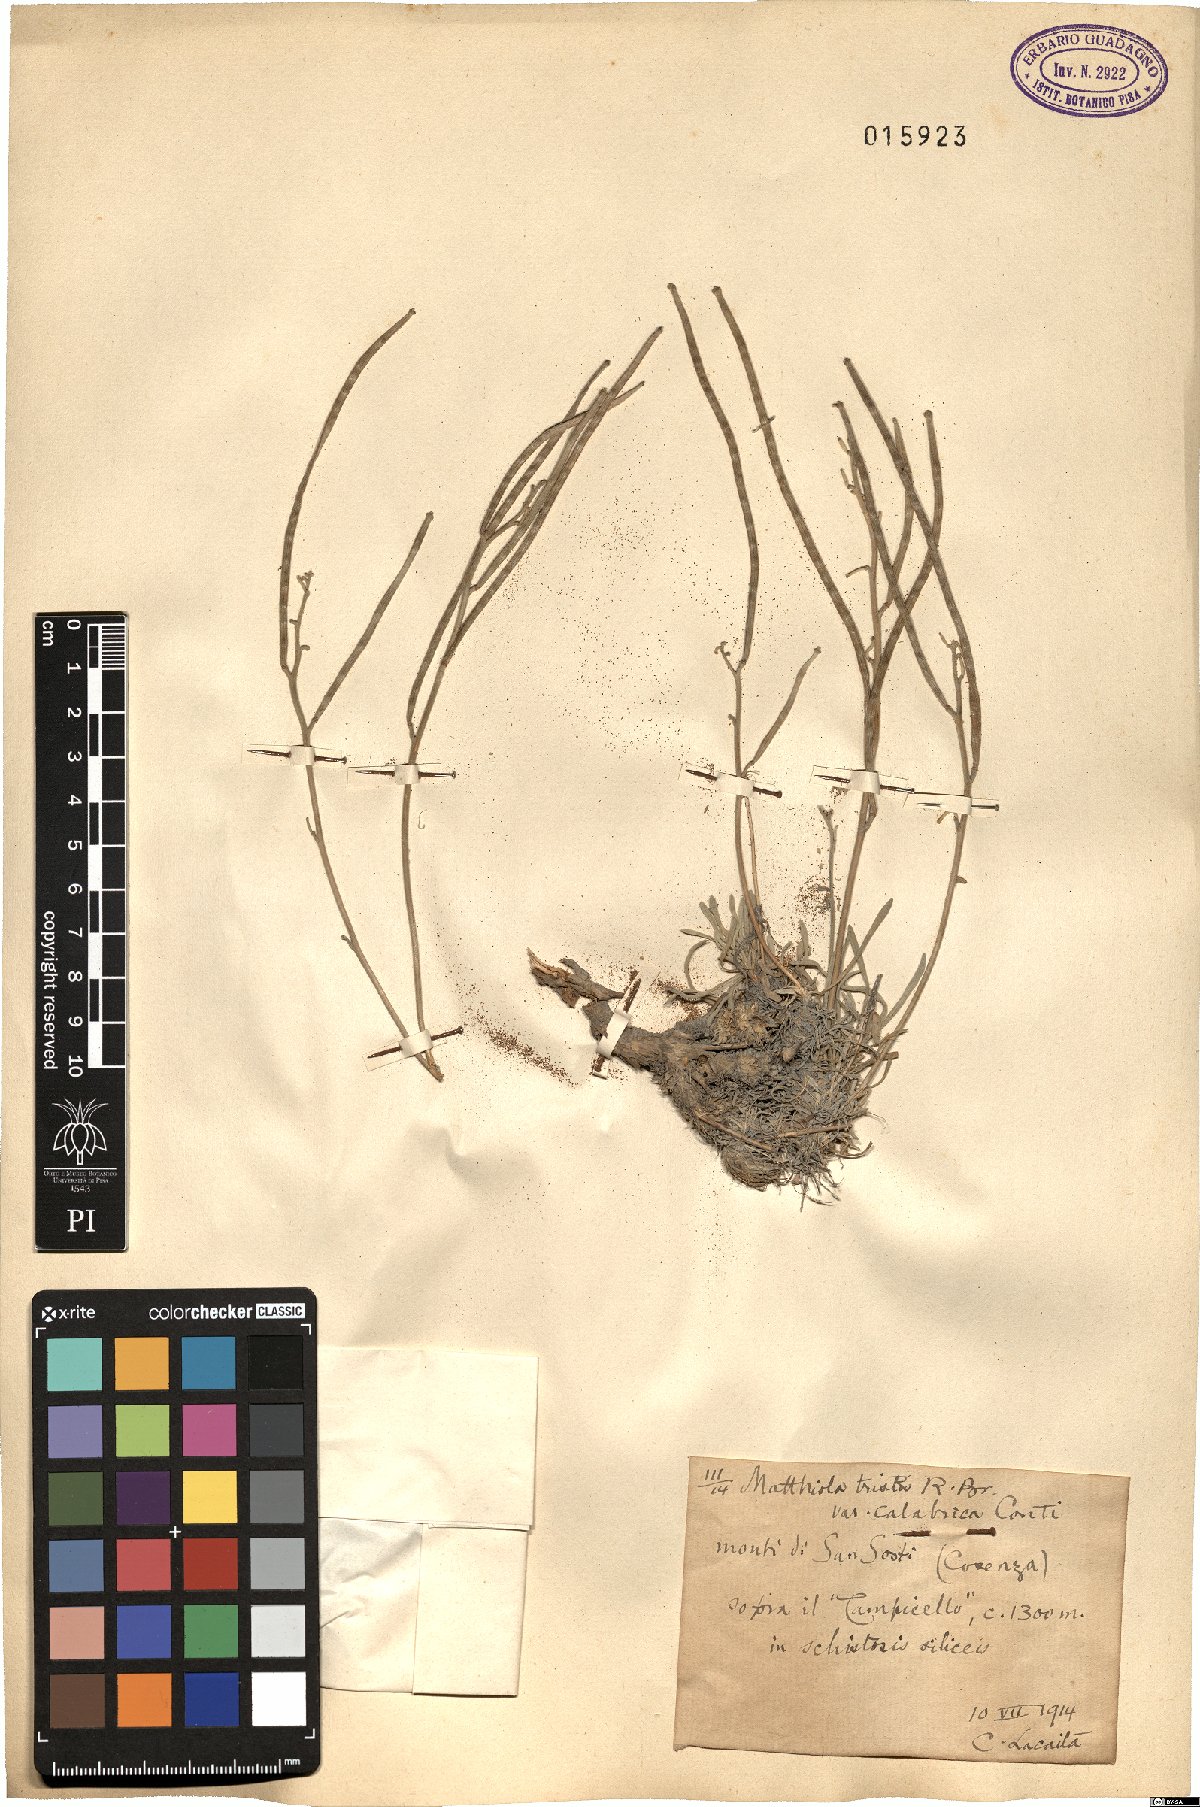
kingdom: Plantae
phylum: Tracheophyta
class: Magnoliopsida
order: Brassicales
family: Brassicaceae
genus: Matthiola
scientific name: Matthiola tristis
